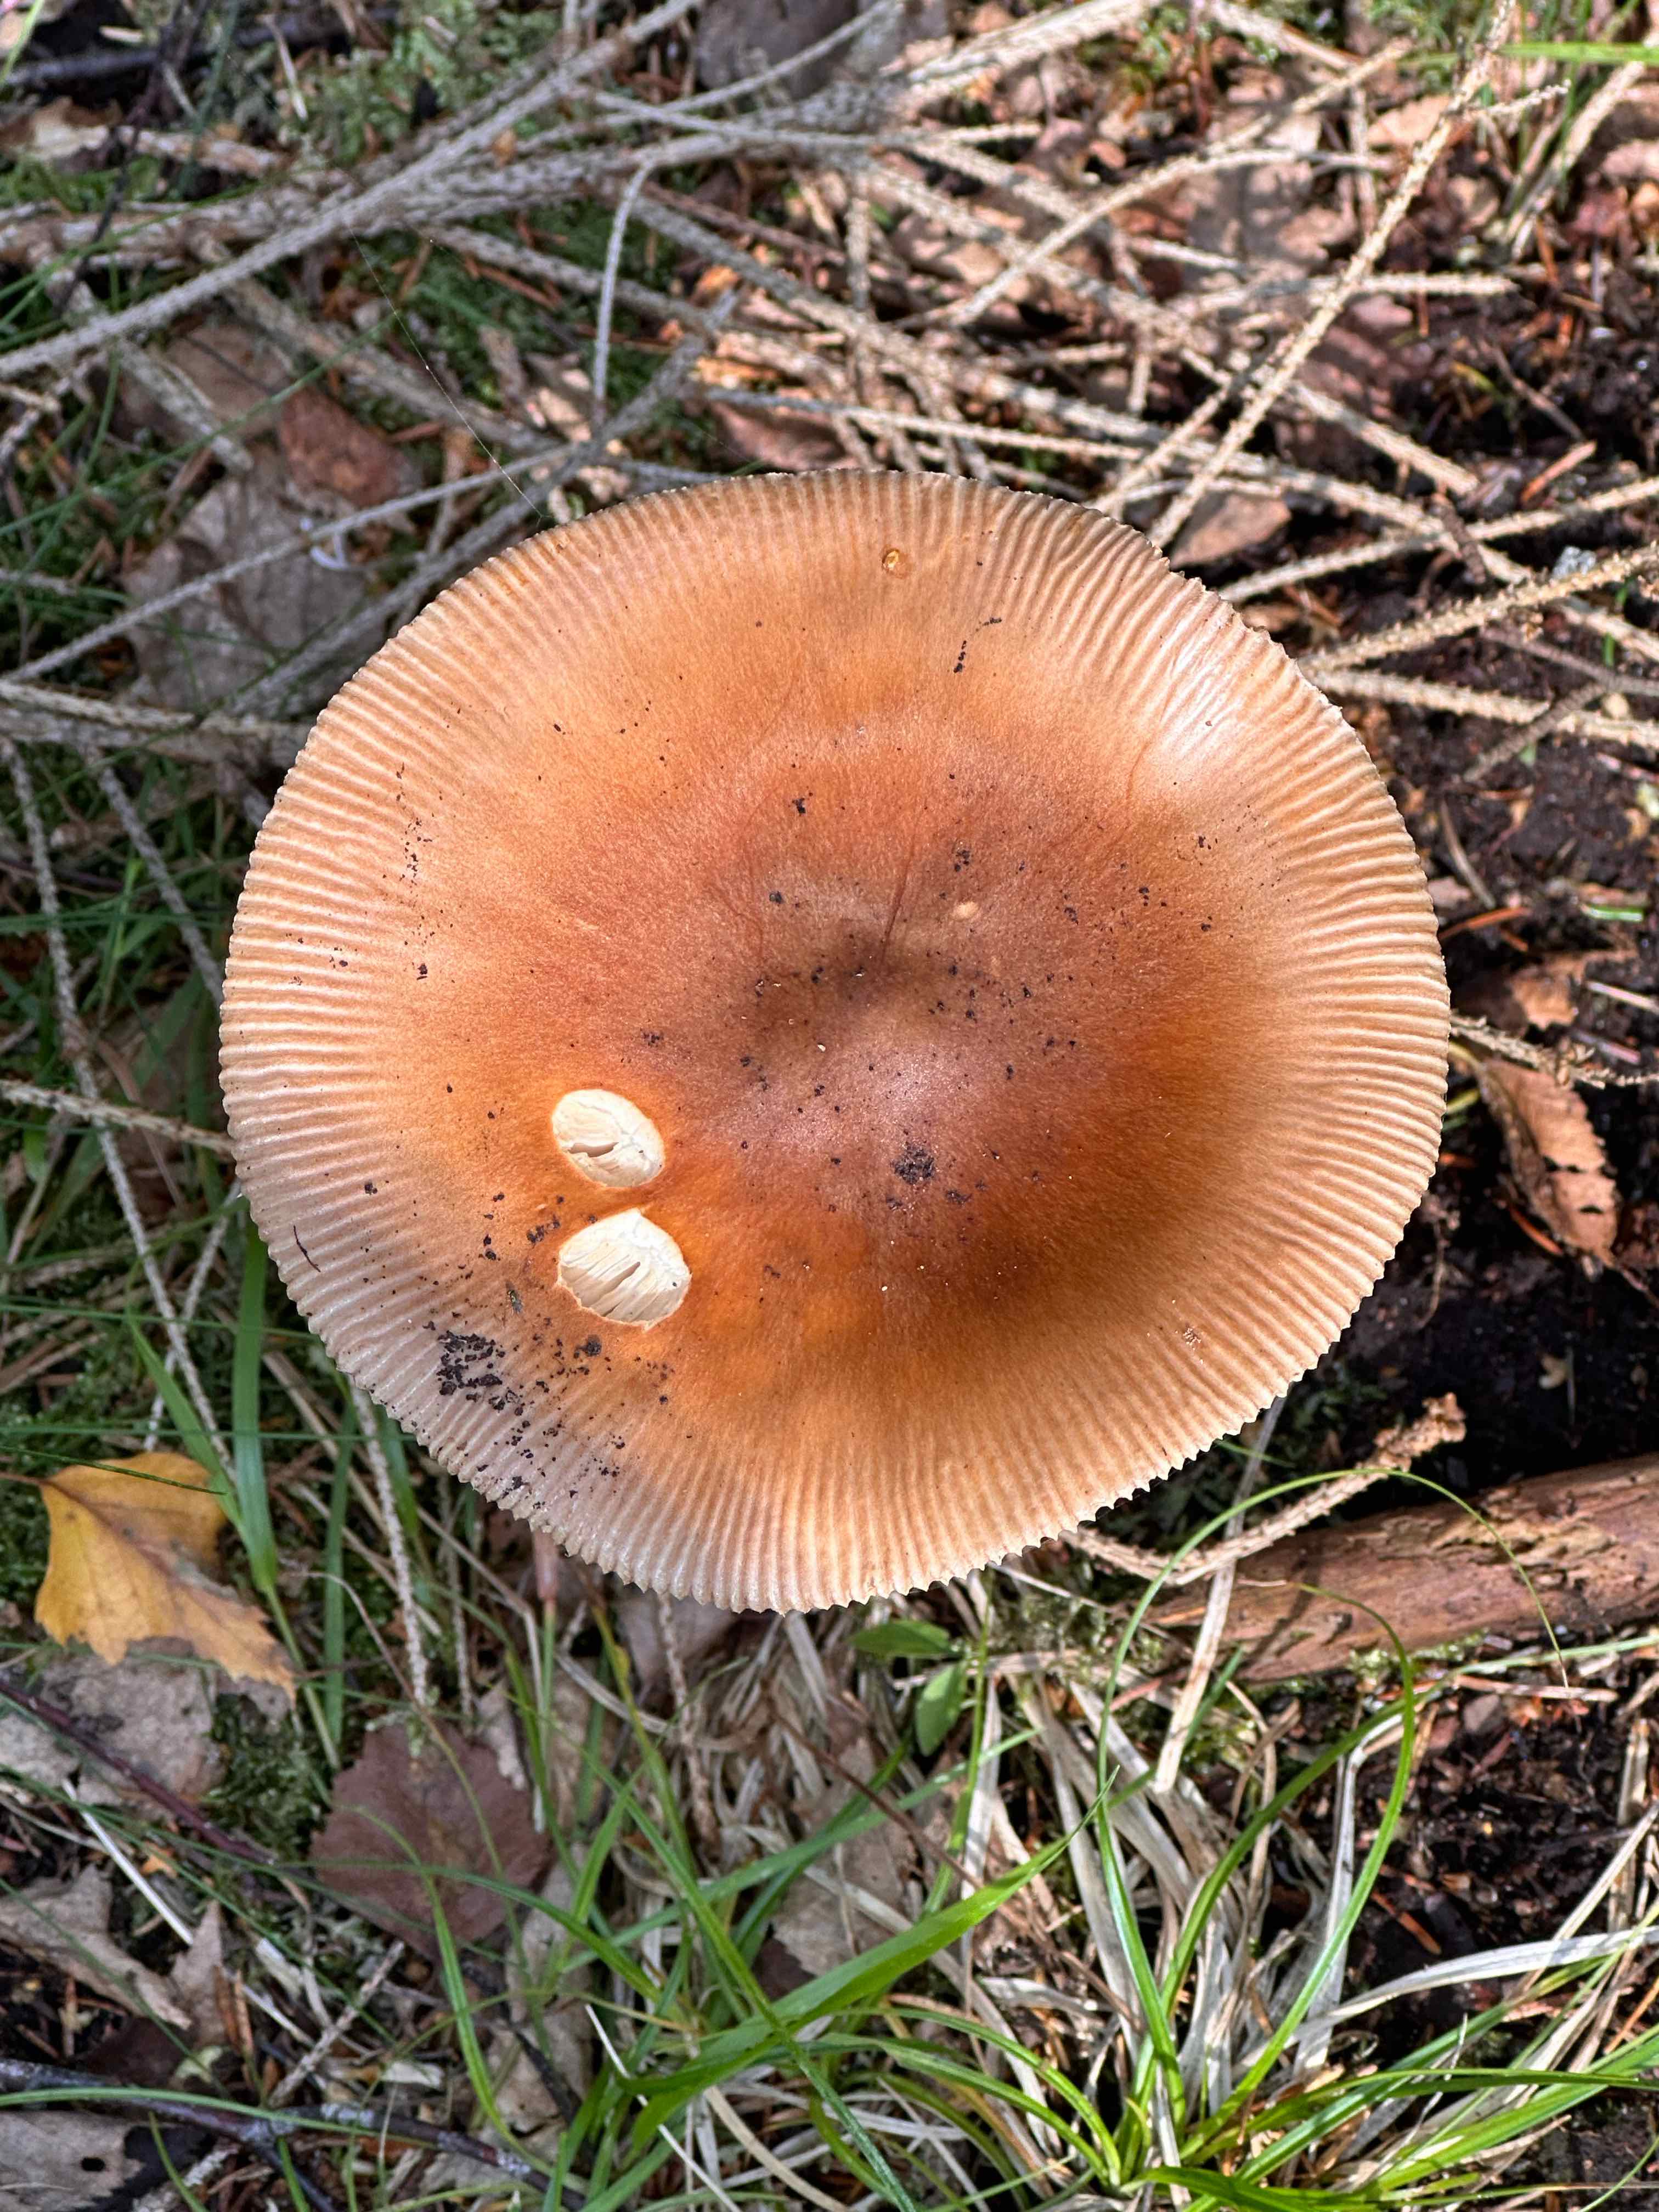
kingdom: Fungi
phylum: Basidiomycota
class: Agaricomycetes
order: Agaricales
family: Amanitaceae
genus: Amanita
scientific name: Amanita fulva
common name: brun kam-fluesvamp
